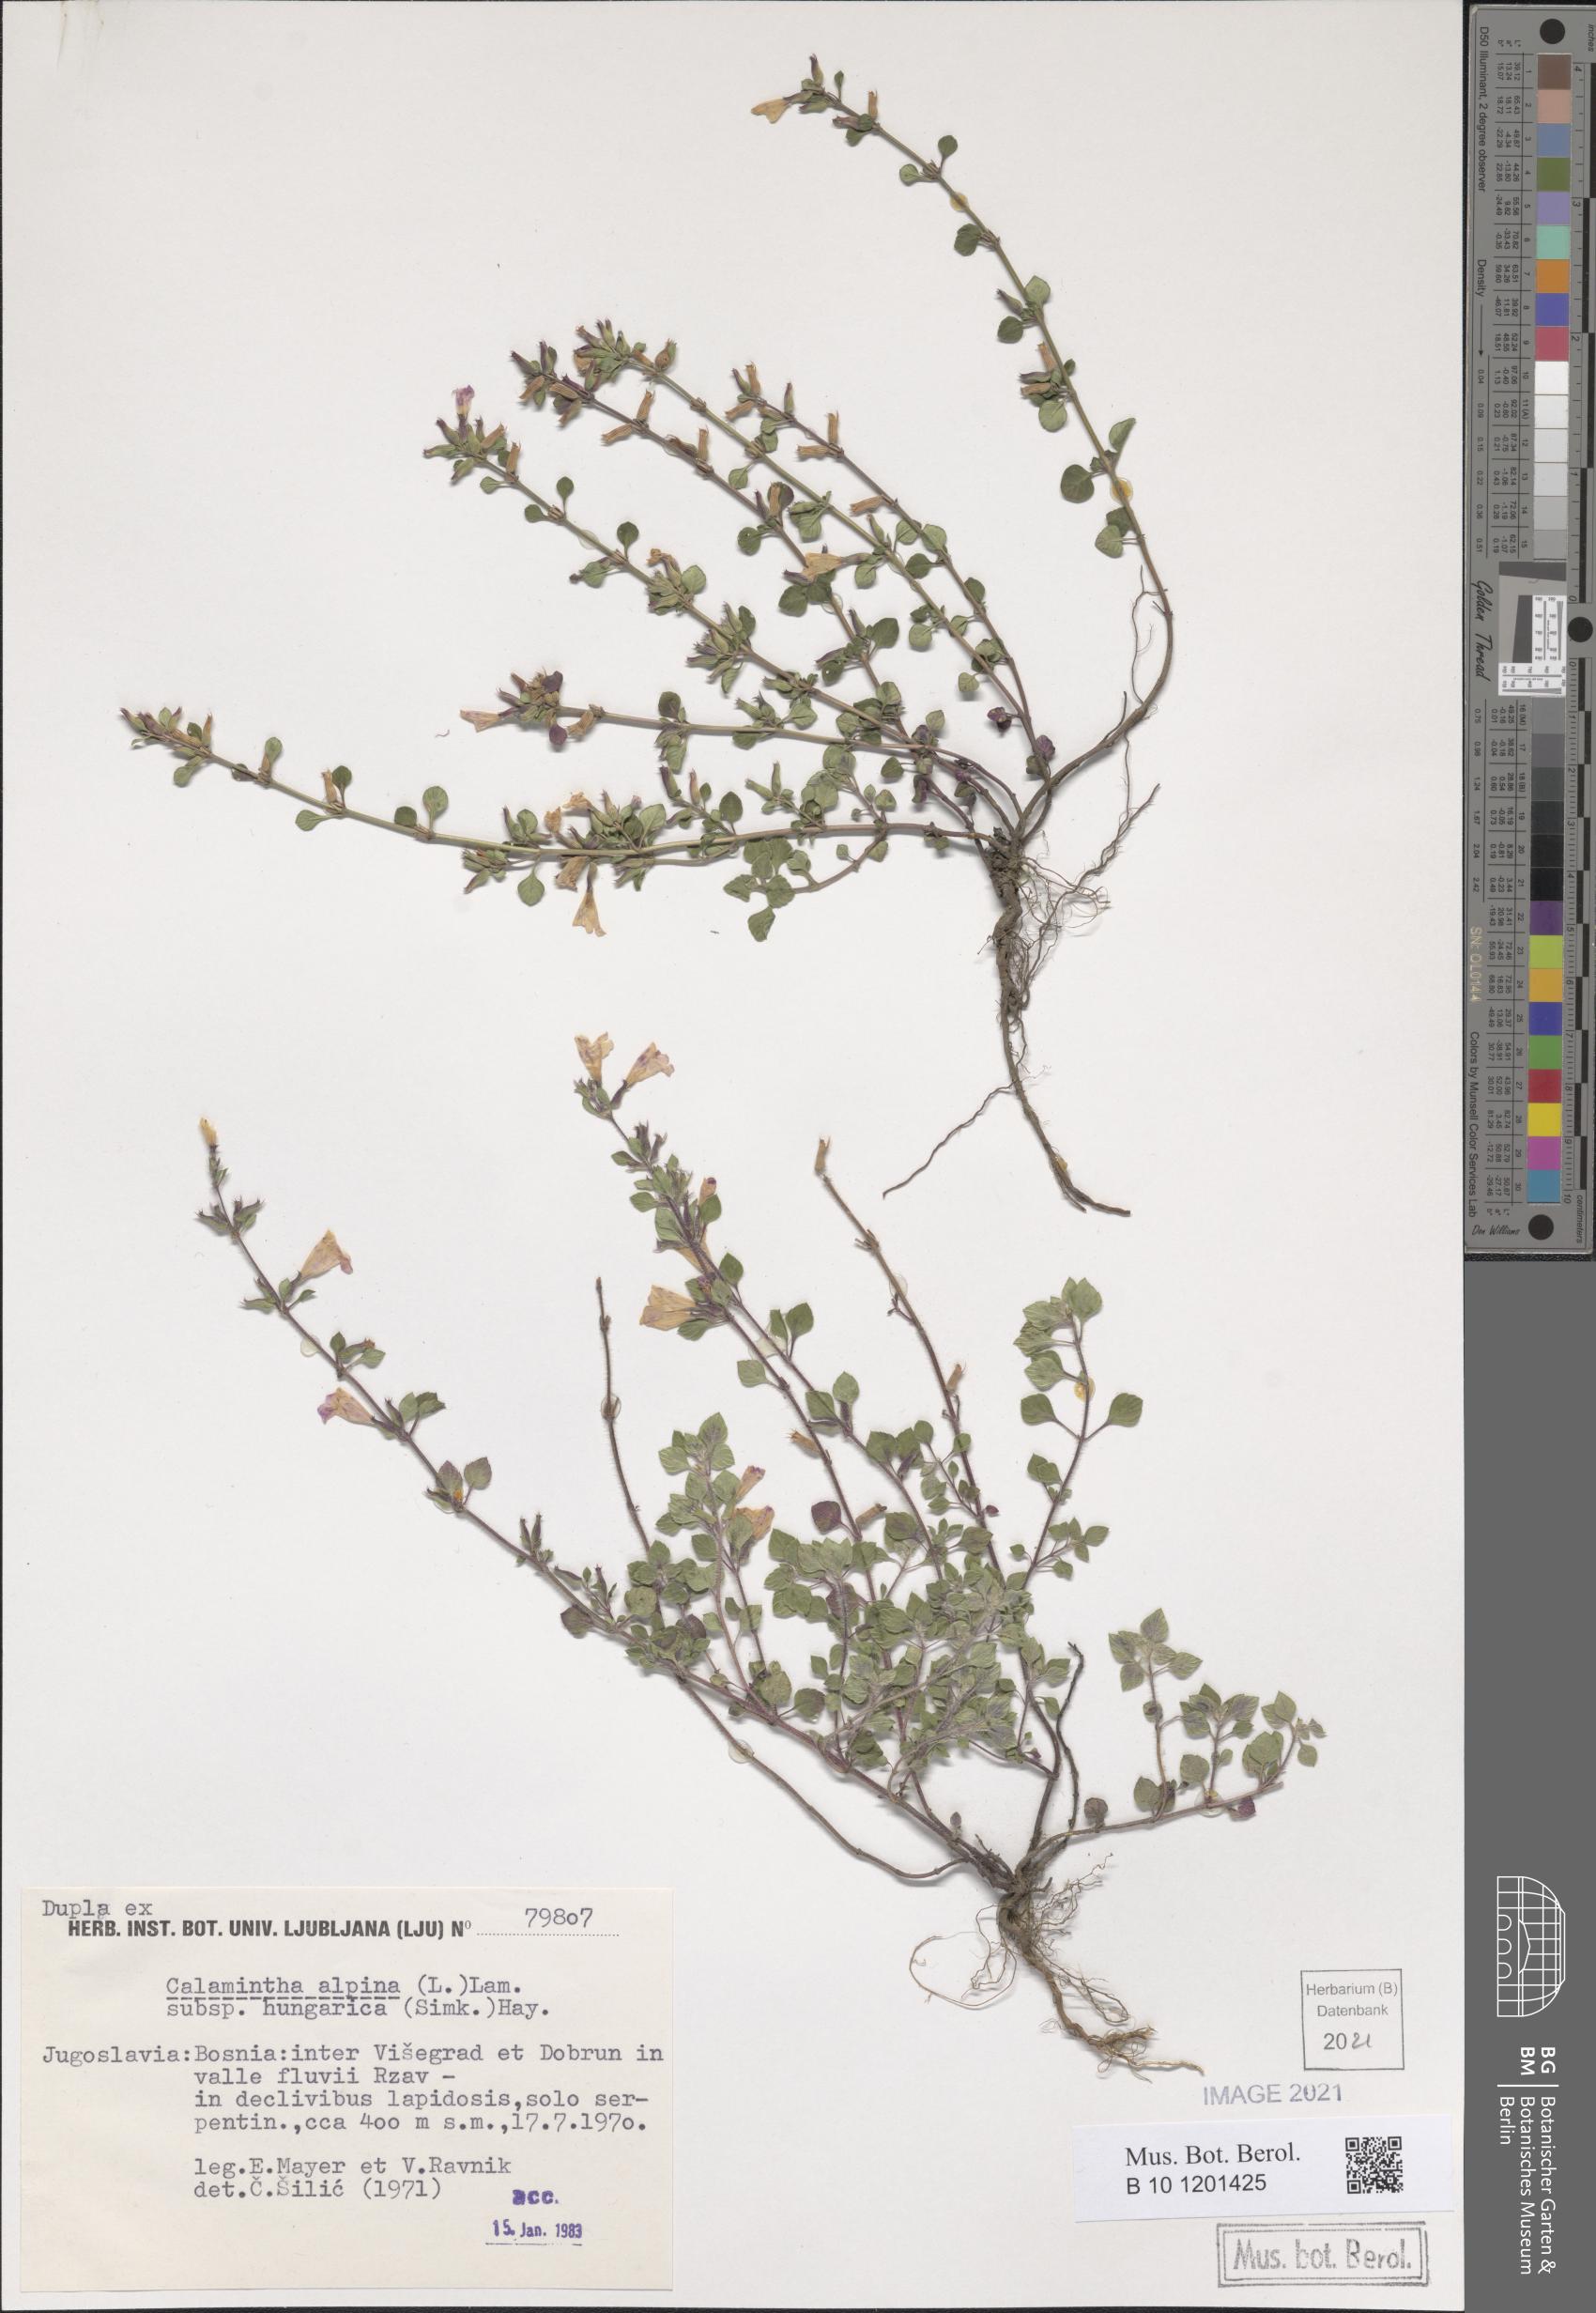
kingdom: Plantae
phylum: Tracheophyta
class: Magnoliopsida
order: Lamiales
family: Lamiaceae
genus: Clinopodium
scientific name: Clinopodium alpinum
